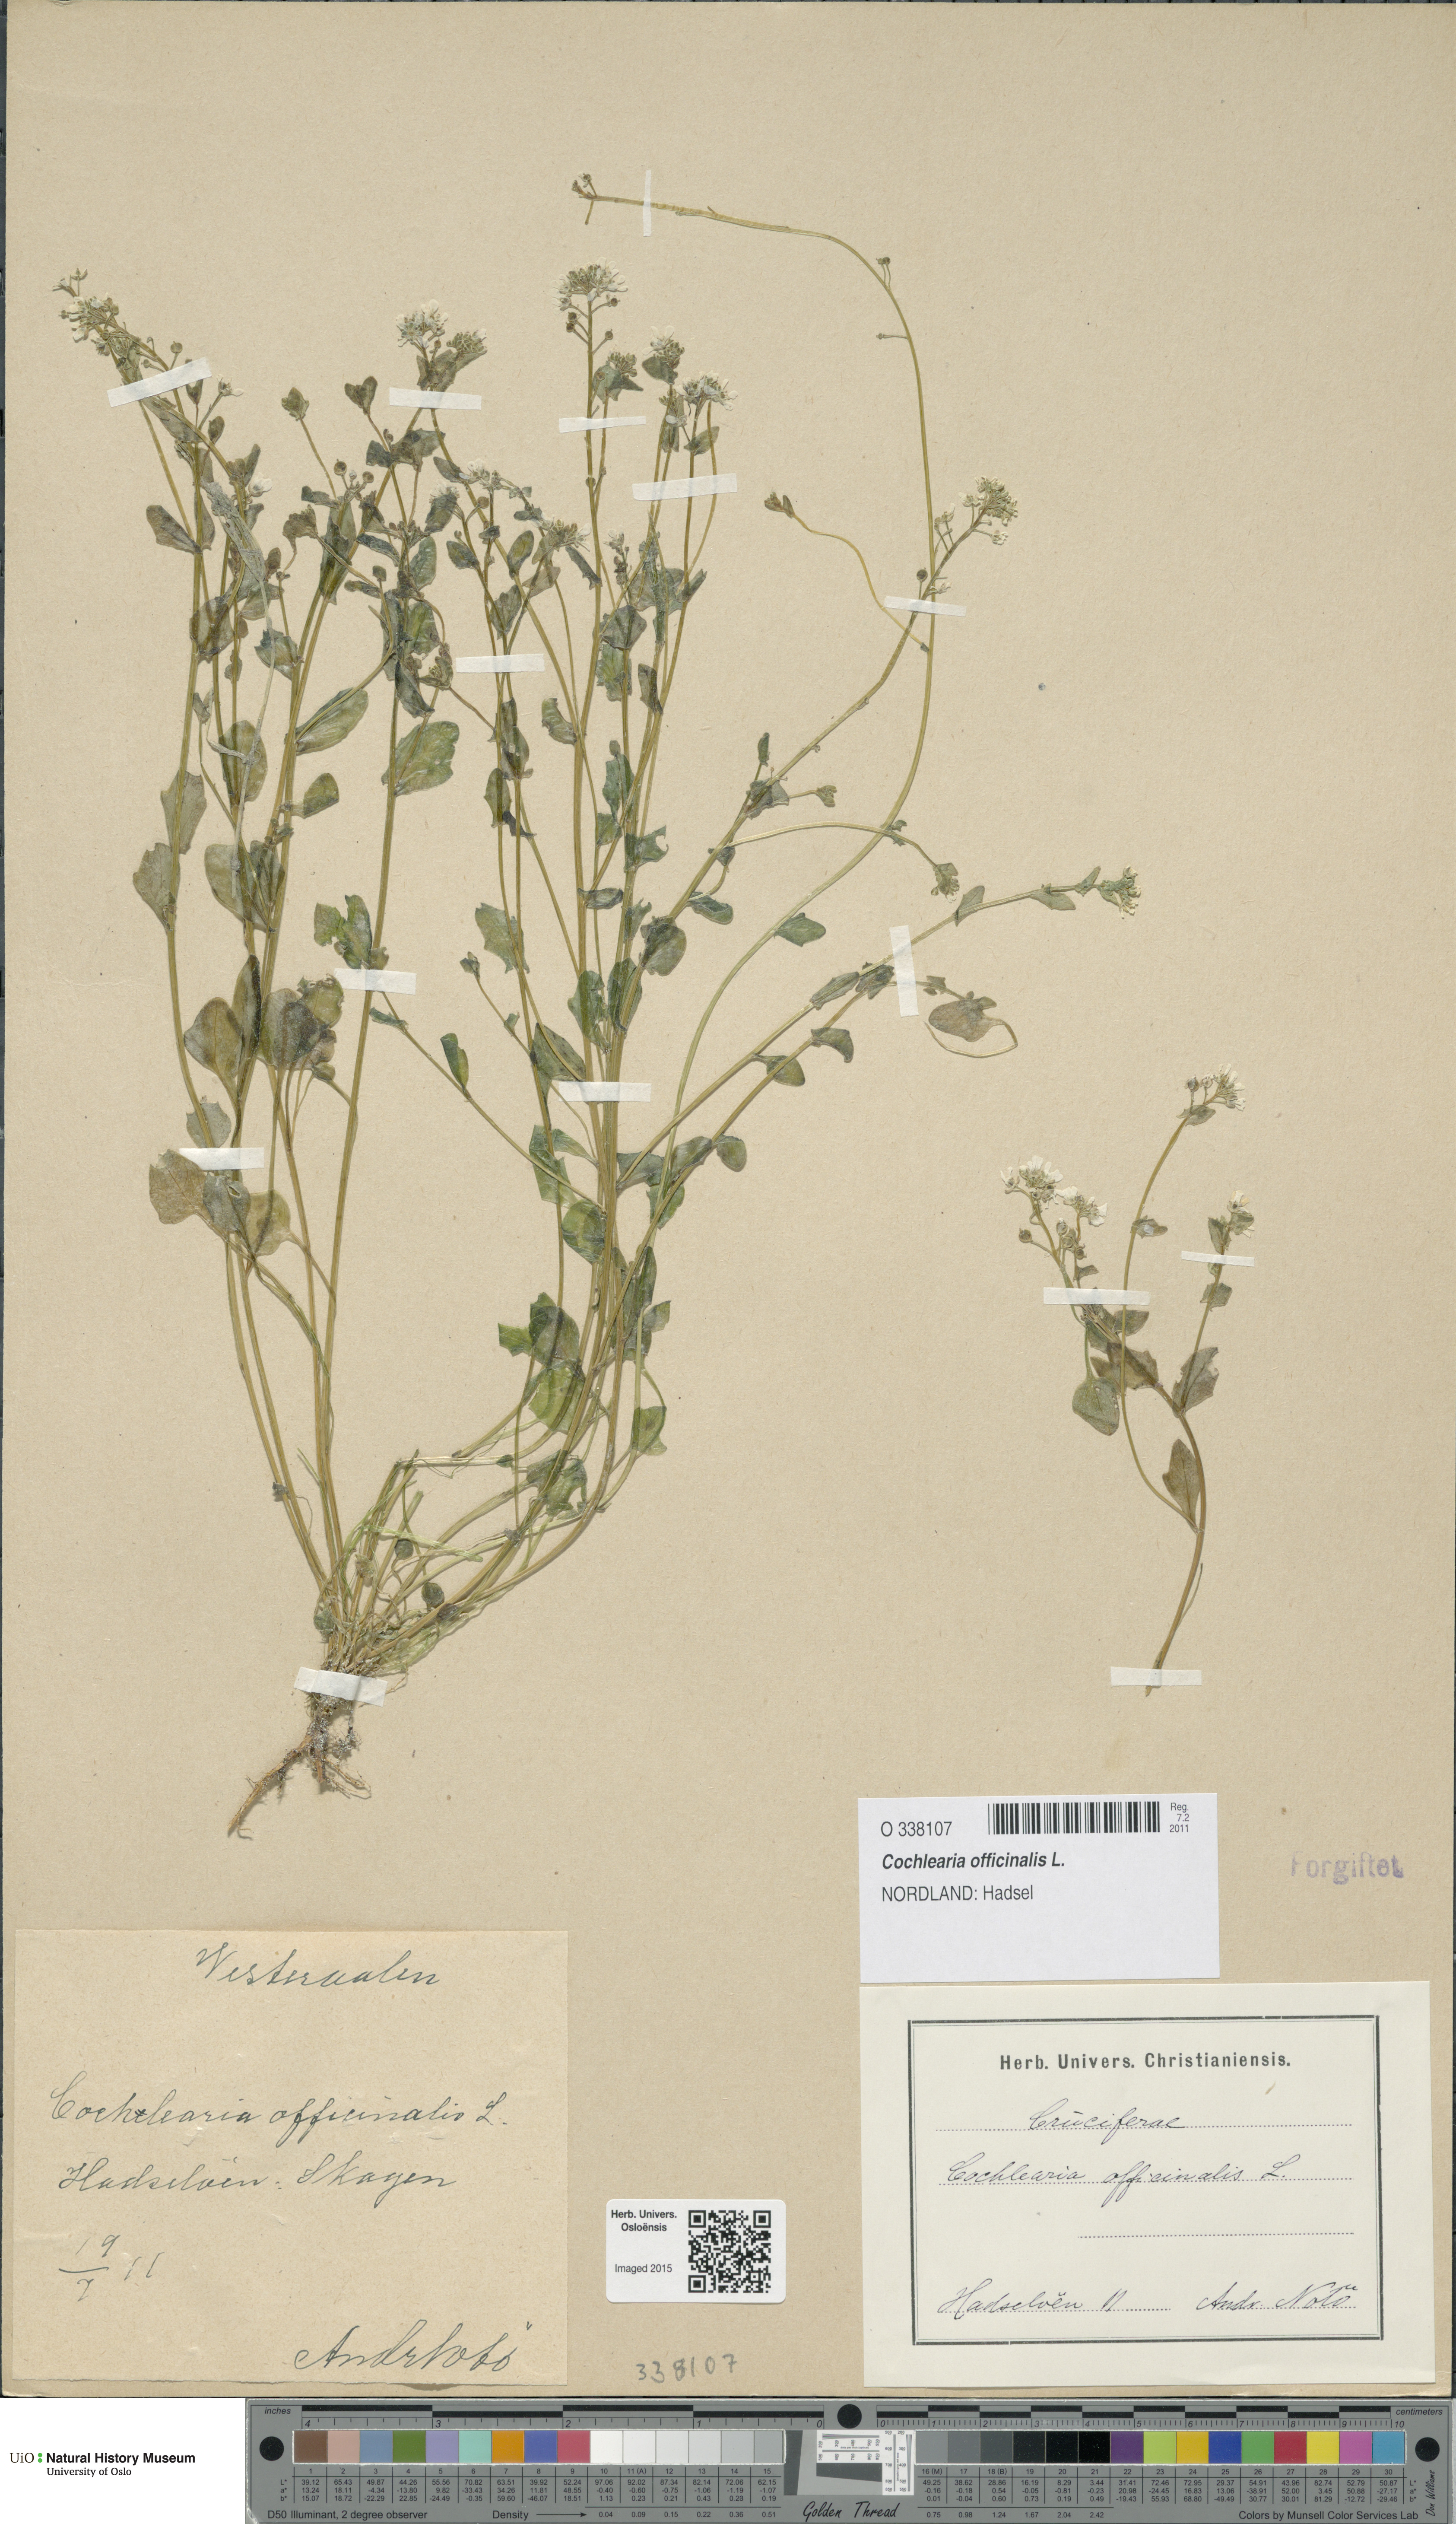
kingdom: Plantae
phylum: Tracheophyta
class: Magnoliopsida
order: Brassicales
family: Brassicaceae
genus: Cochlearia
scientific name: Cochlearia officinalis
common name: Scurvy-grass
